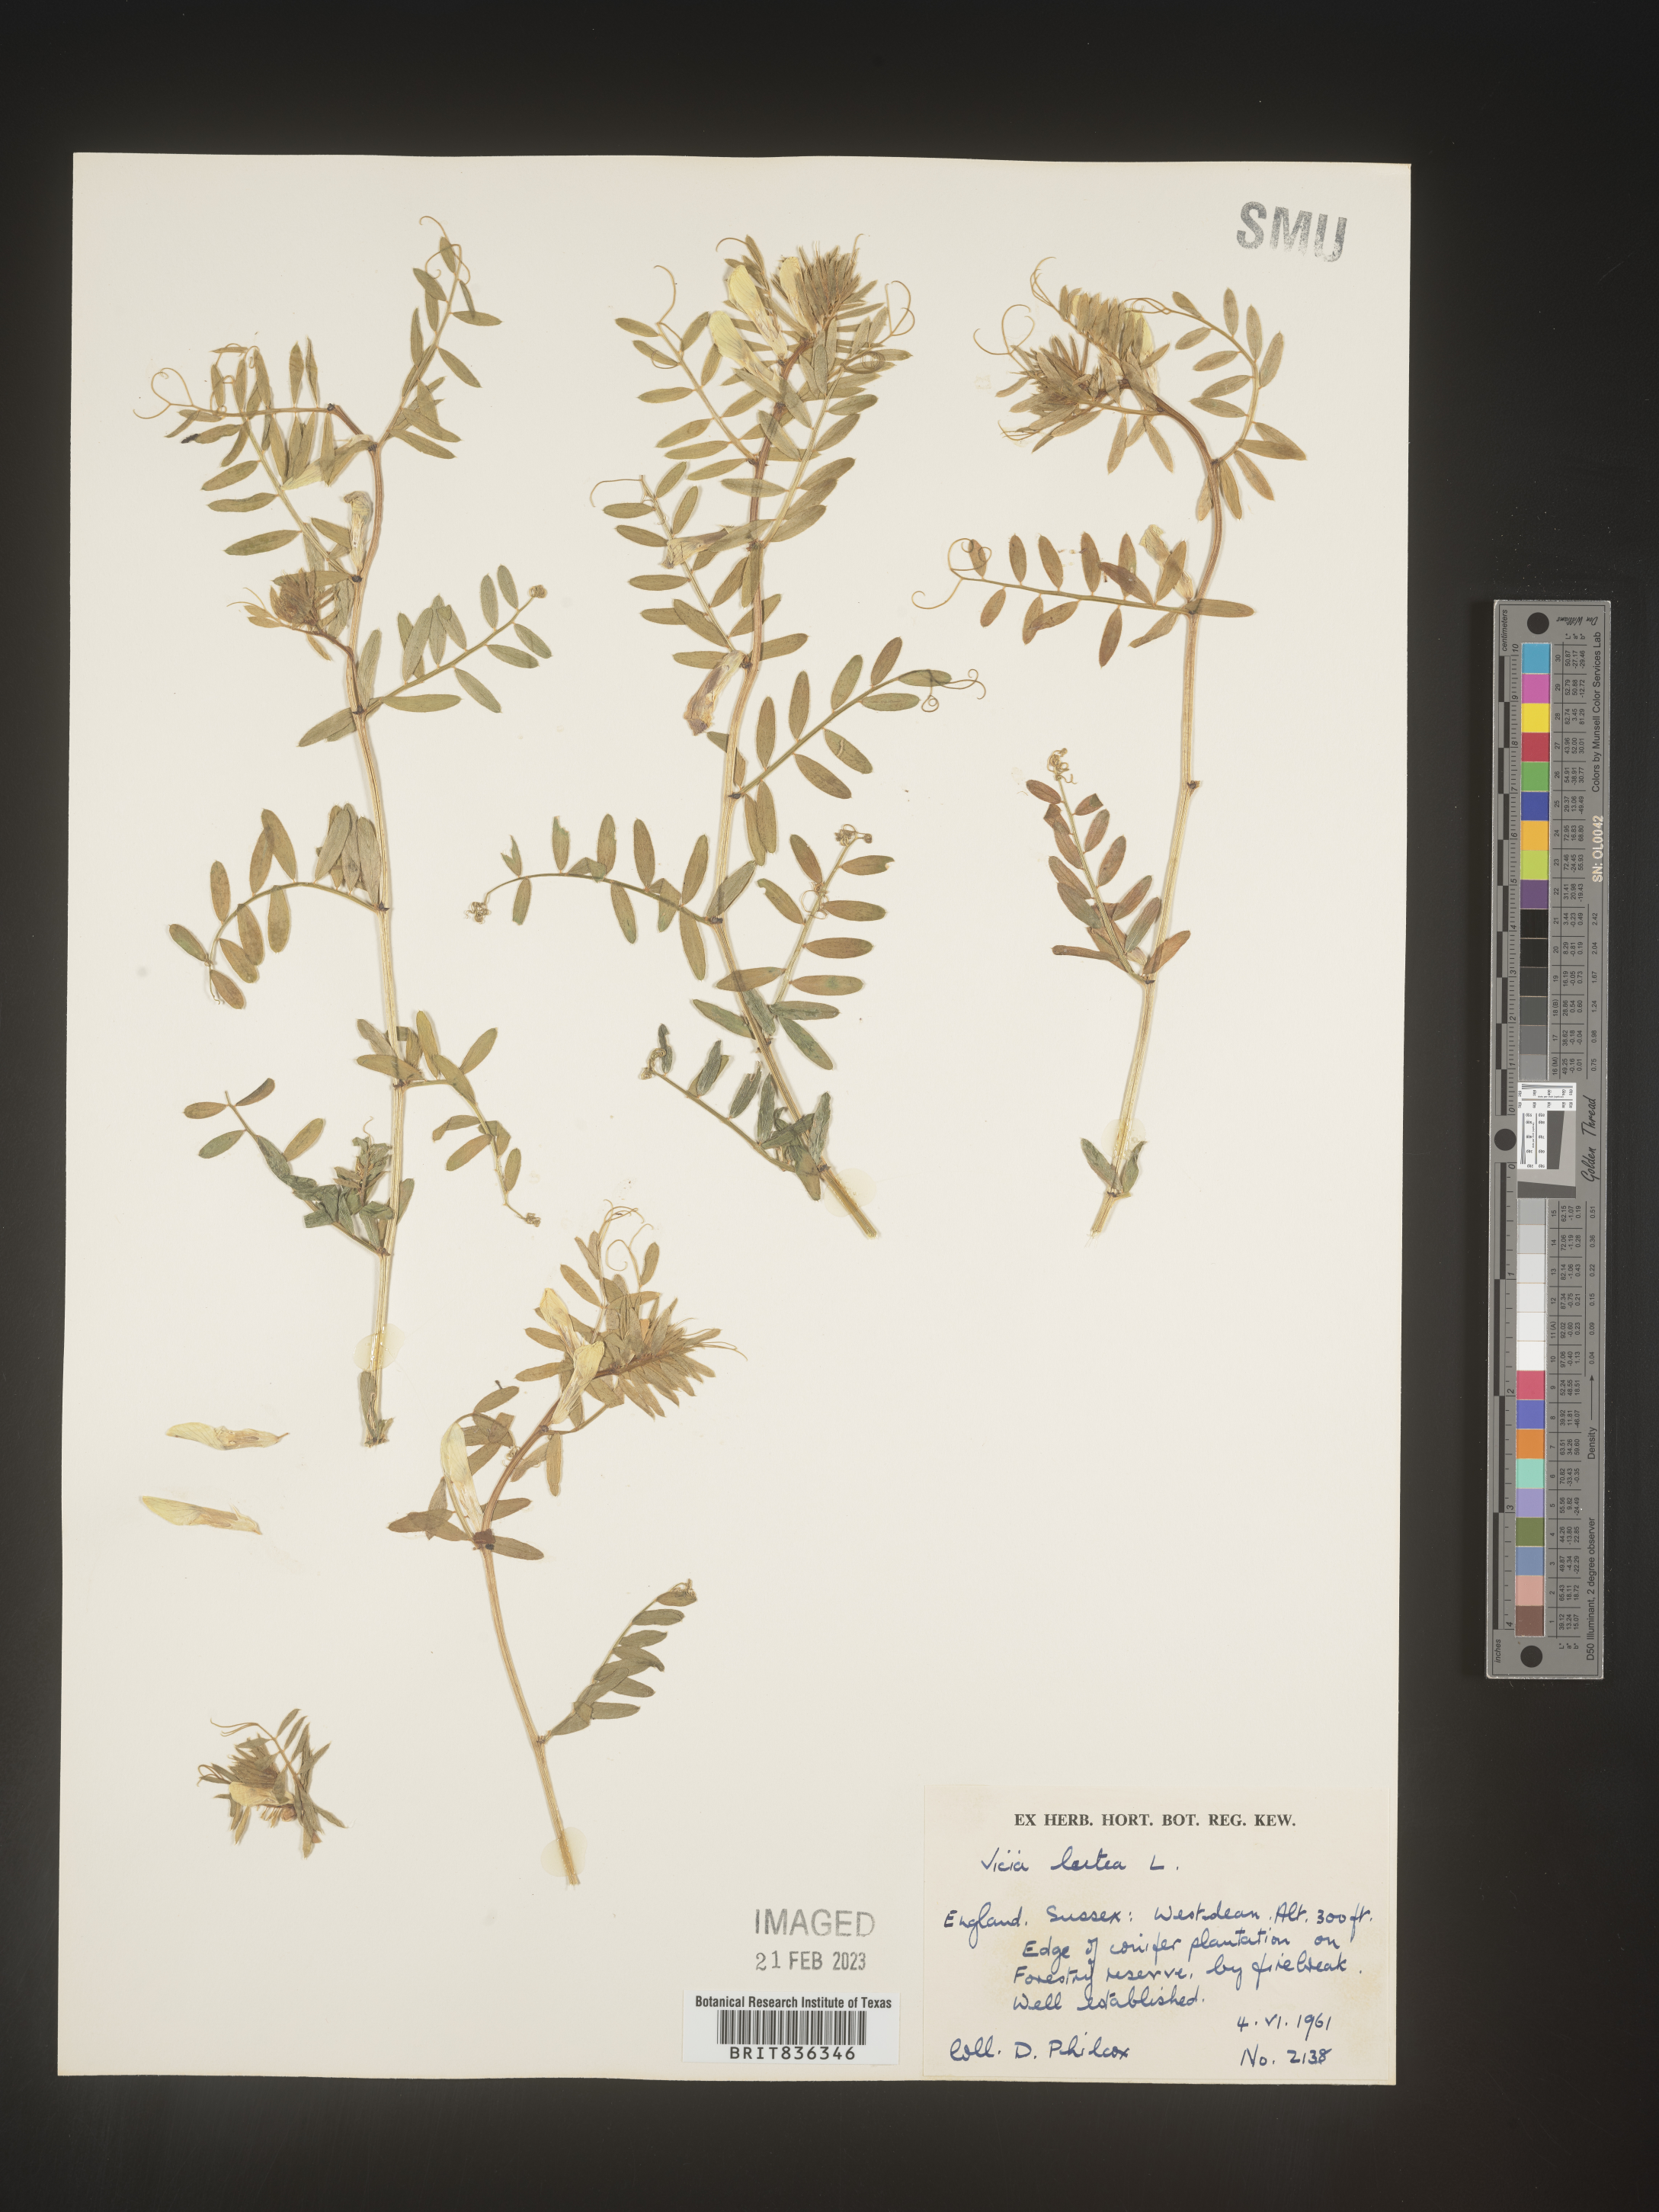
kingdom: Plantae
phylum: Tracheophyta
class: Magnoliopsida
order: Fabales
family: Fabaceae
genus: Vicia
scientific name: Vicia
